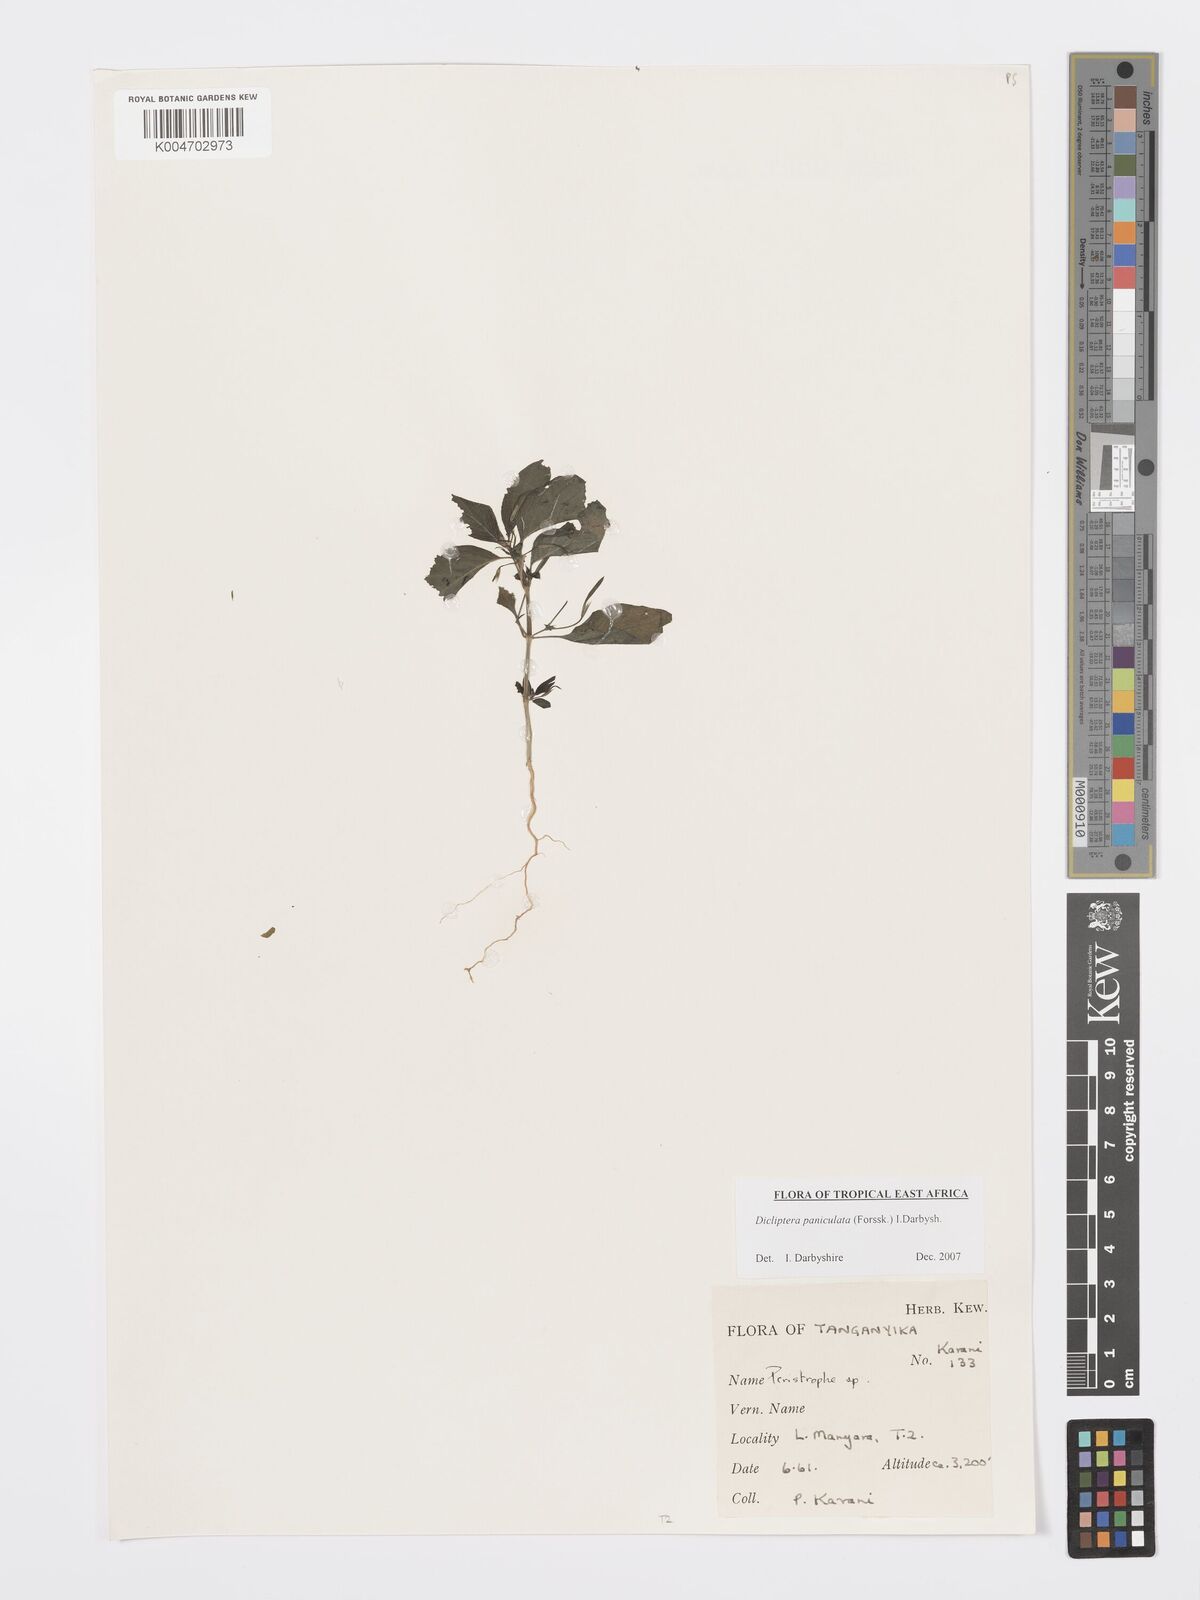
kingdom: Plantae
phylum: Tracheophyta
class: Magnoliopsida
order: Lamiales
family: Acanthaceae
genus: Dicliptera
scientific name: Dicliptera paniculata
